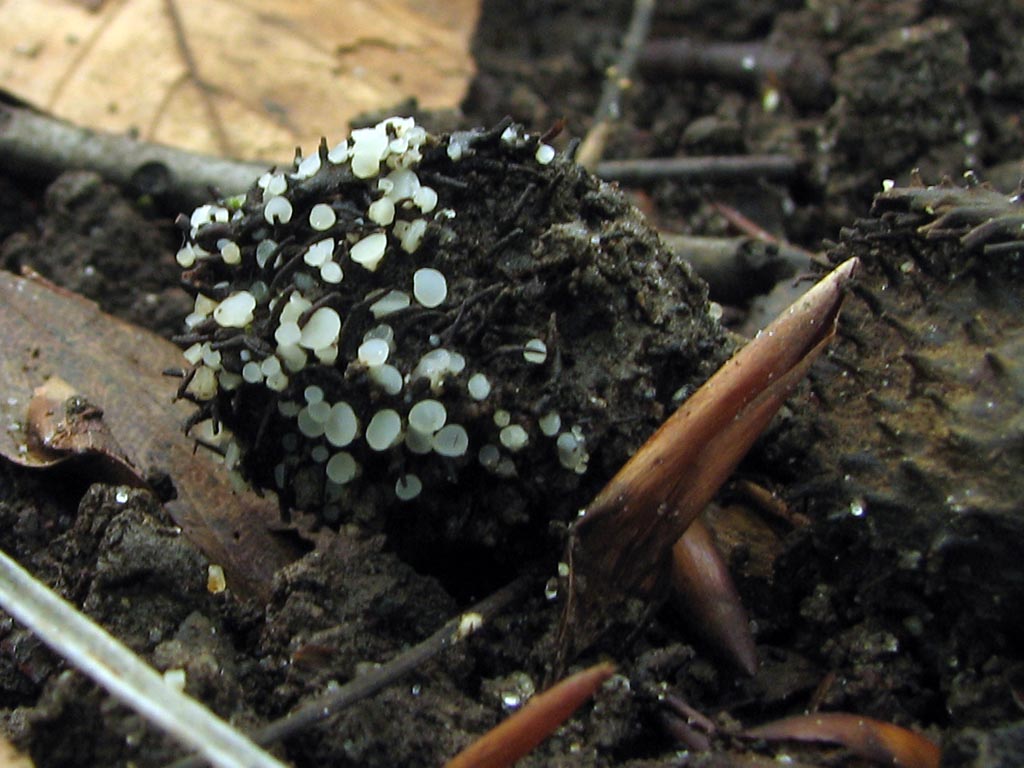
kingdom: Fungi
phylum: Ascomycota
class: Leotiomycetes
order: Helotiales
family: Helotiaceae
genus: Hymenoscyphus
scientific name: Hymenoscyphus fagineus
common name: vellugtende stilkskive
